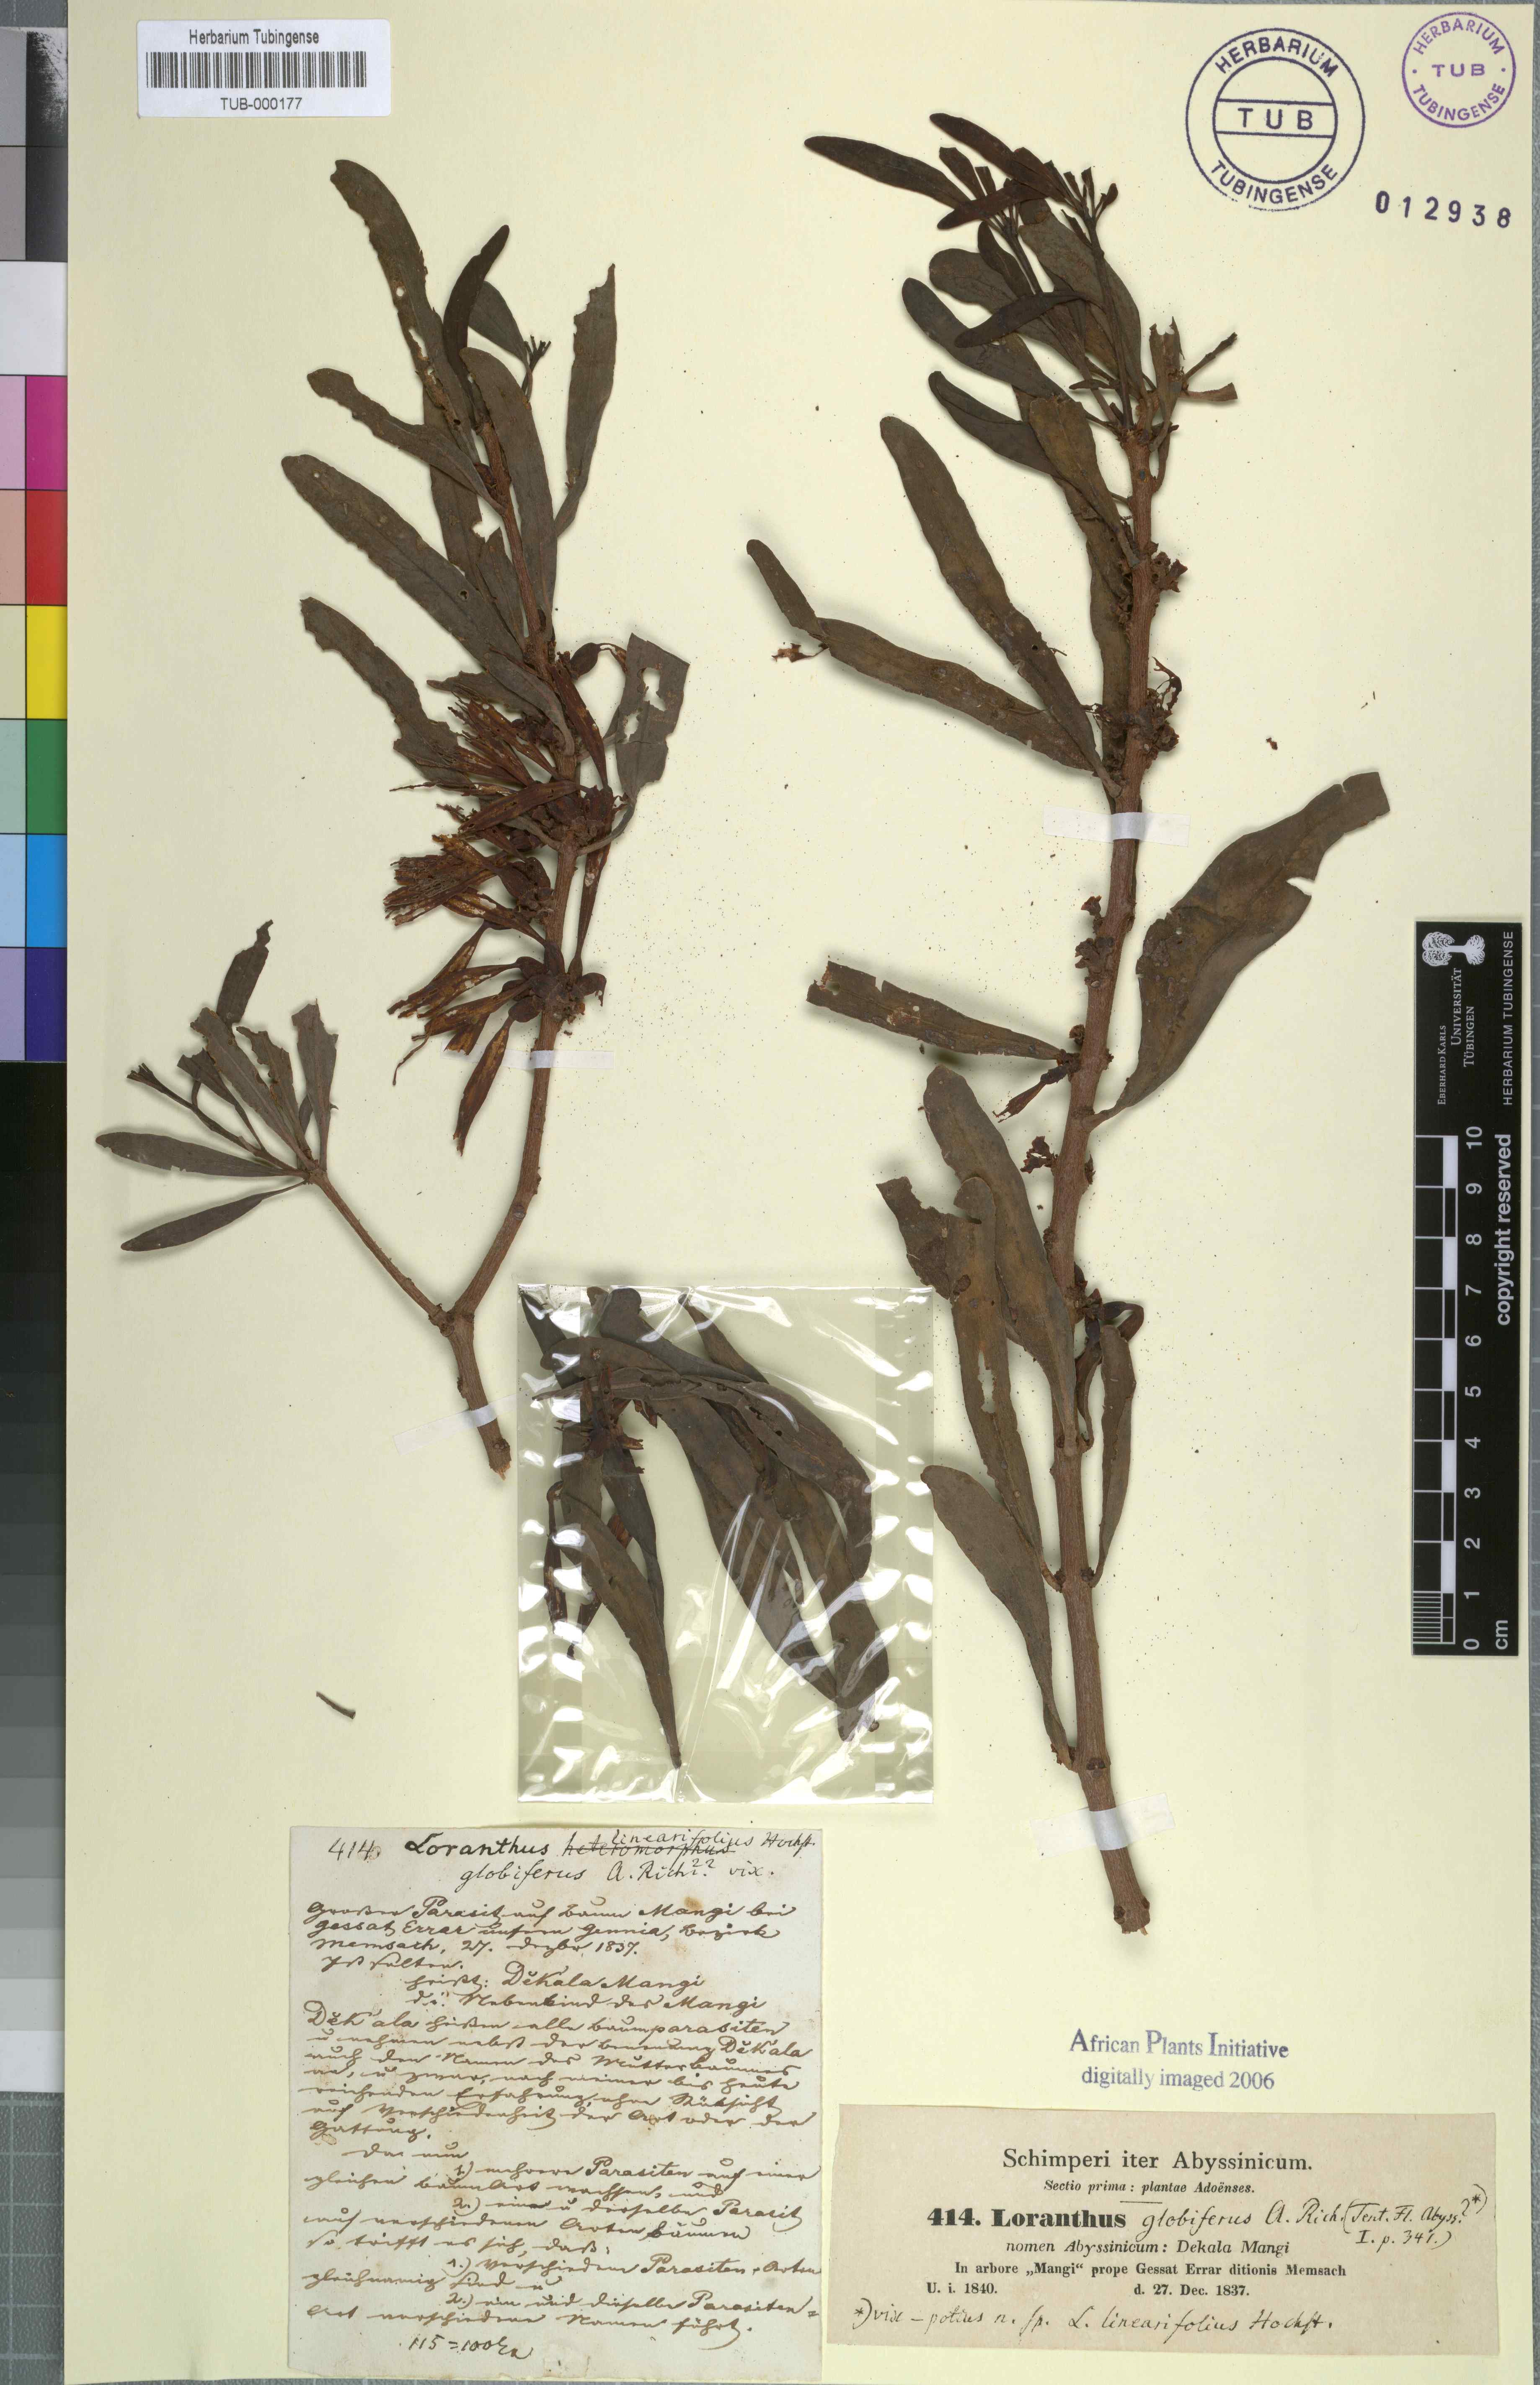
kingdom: Plantae
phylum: Tracheophyta
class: Magnoliopsida
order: Santalales
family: Loranthaceae
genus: Tapinanthus
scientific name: Tapinanthus globiferus
